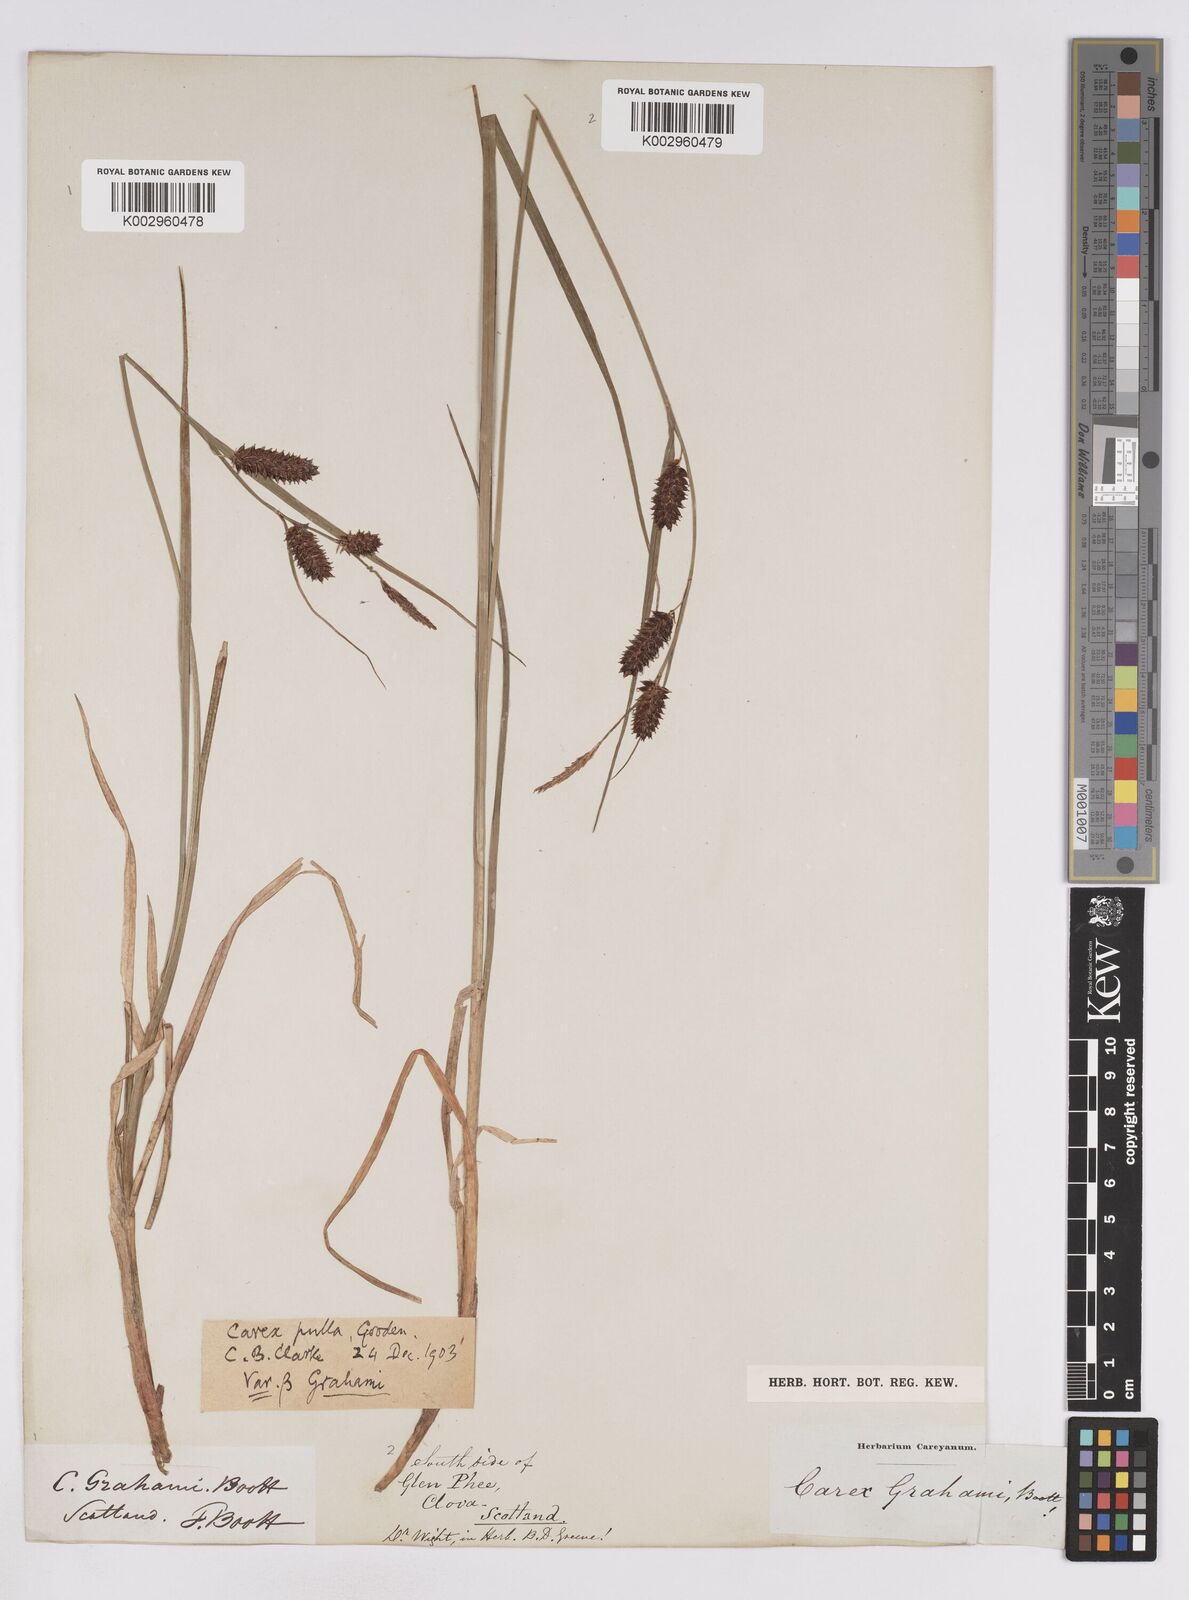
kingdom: Plantae
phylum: Tracheophyta
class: Liliopsida
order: Poales
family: Cyperaceae
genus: Carex
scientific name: Carex saxatilis
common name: Russet sedge
